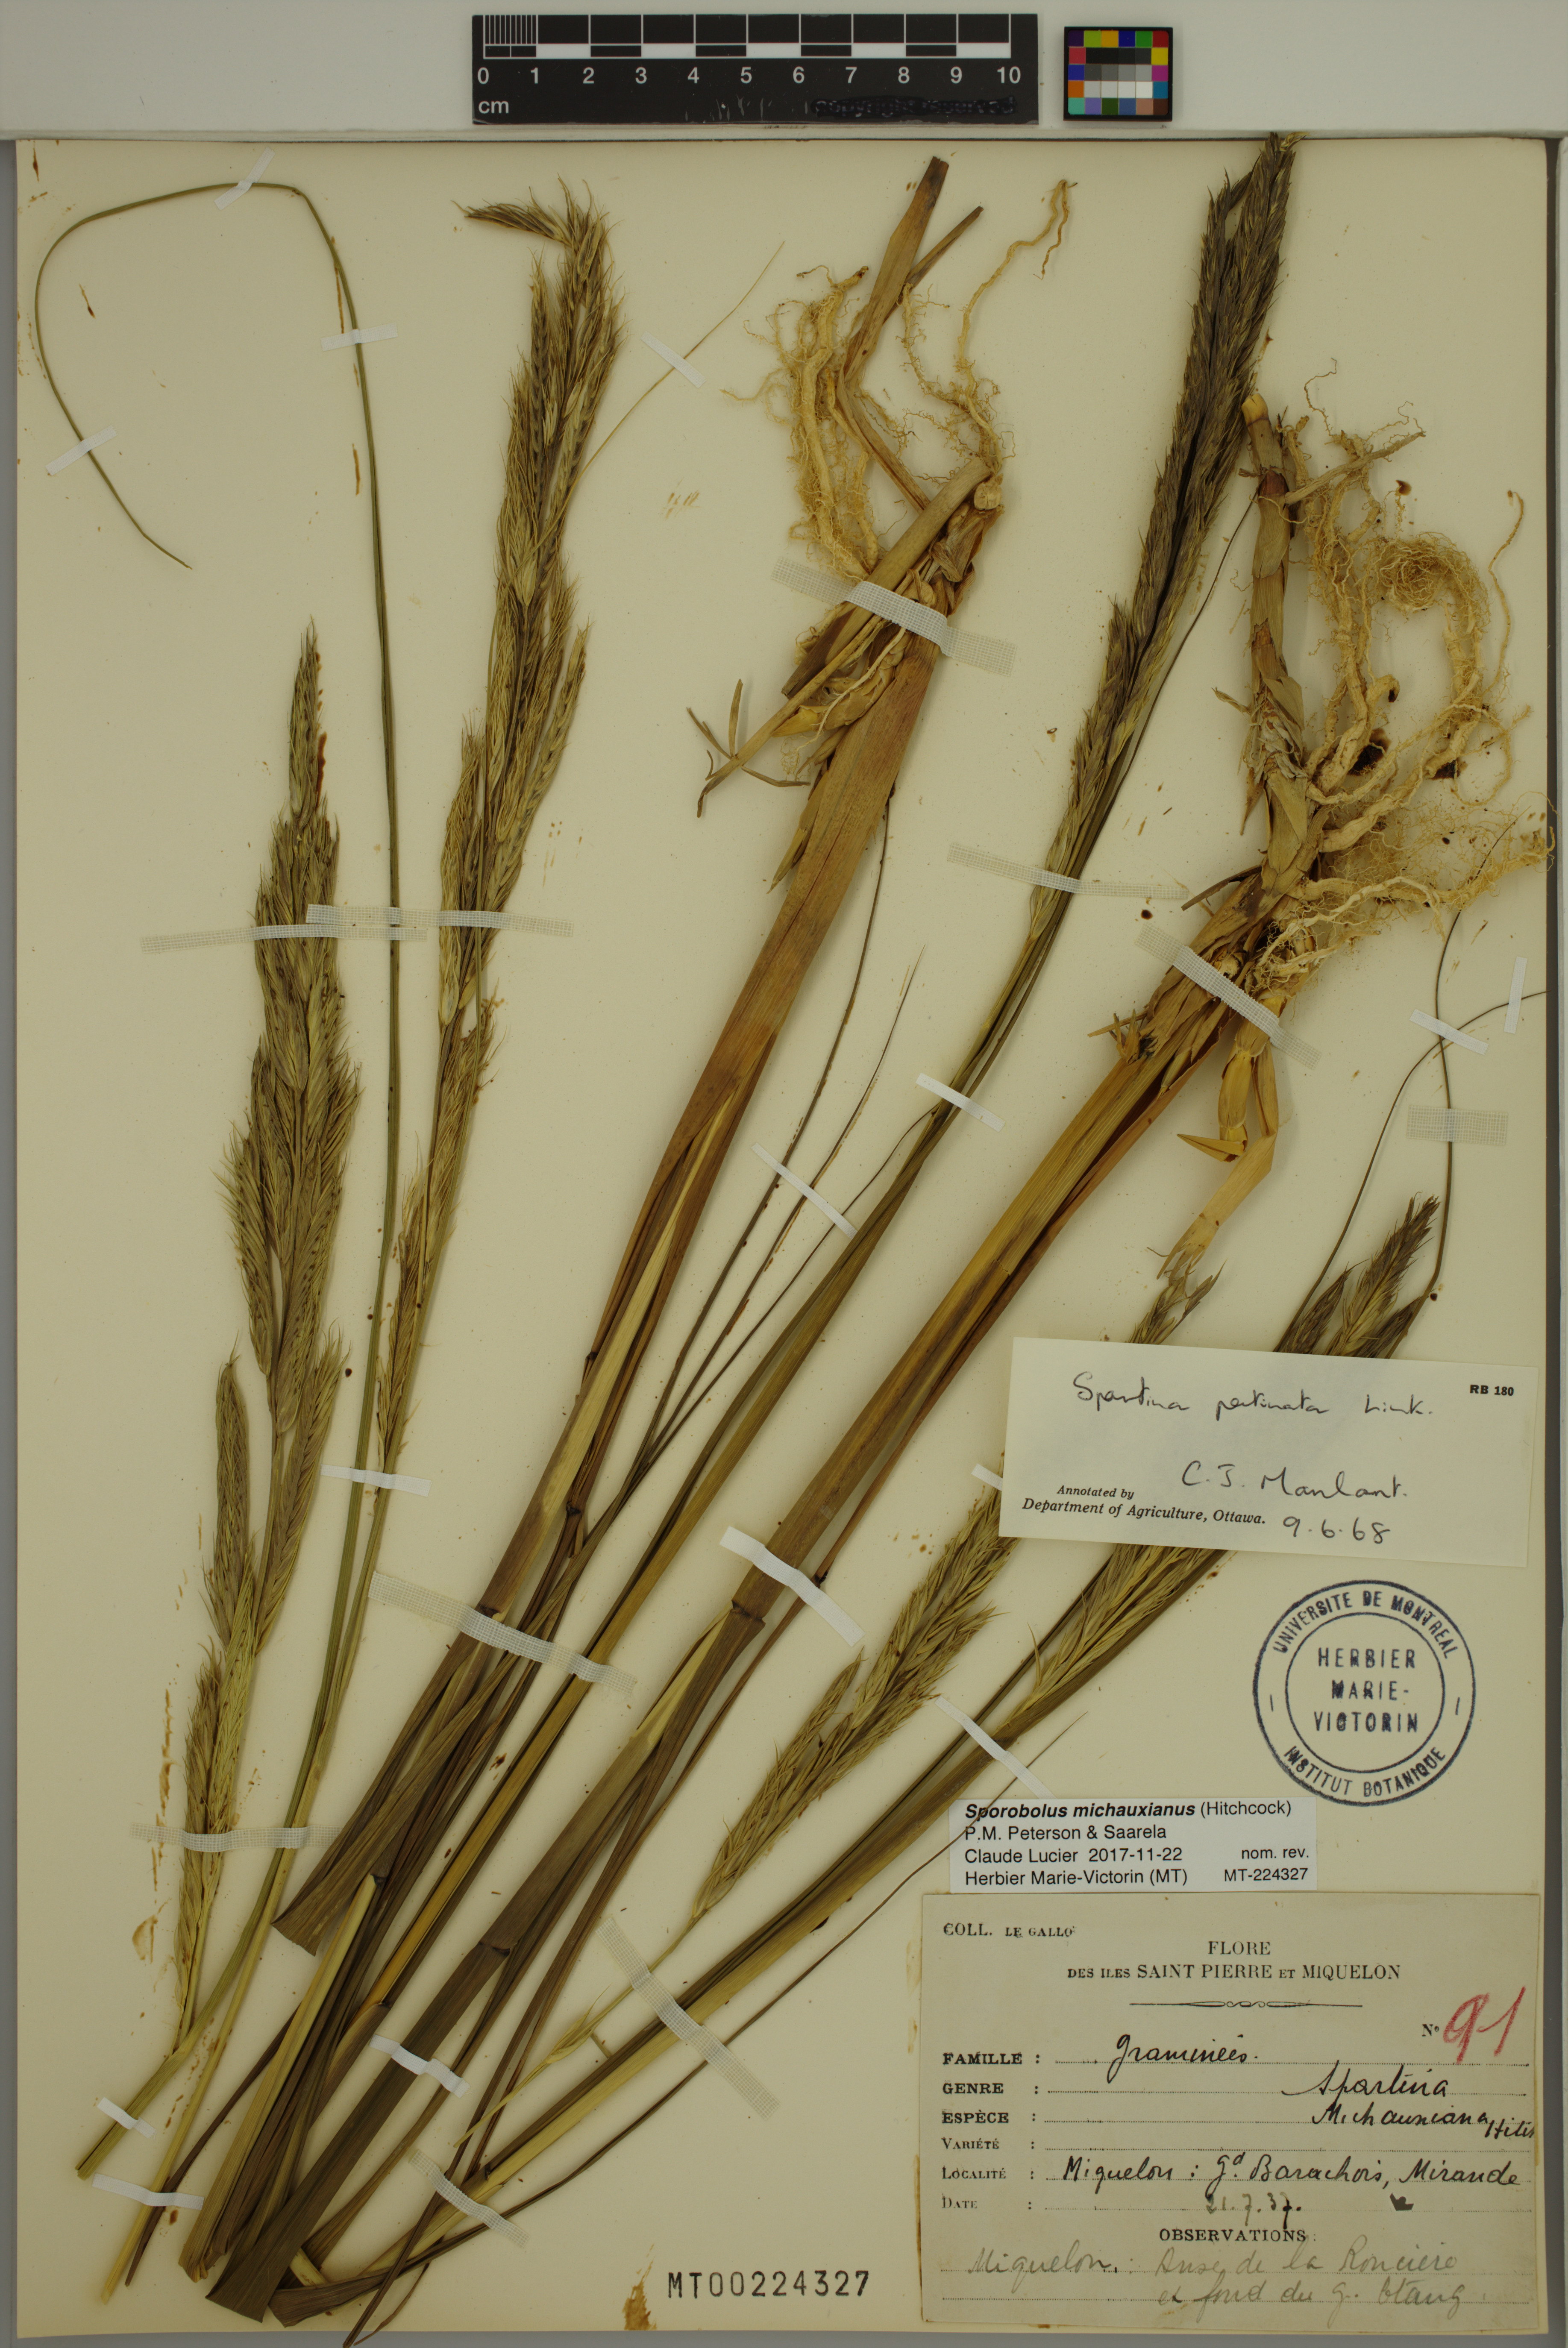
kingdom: Plantae
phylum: Tracheophyta
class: Liliopsida
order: Poales
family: Poaceae
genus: Sporobolus
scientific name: Sporobolus michauxianus
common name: Freshwater cordgrass
